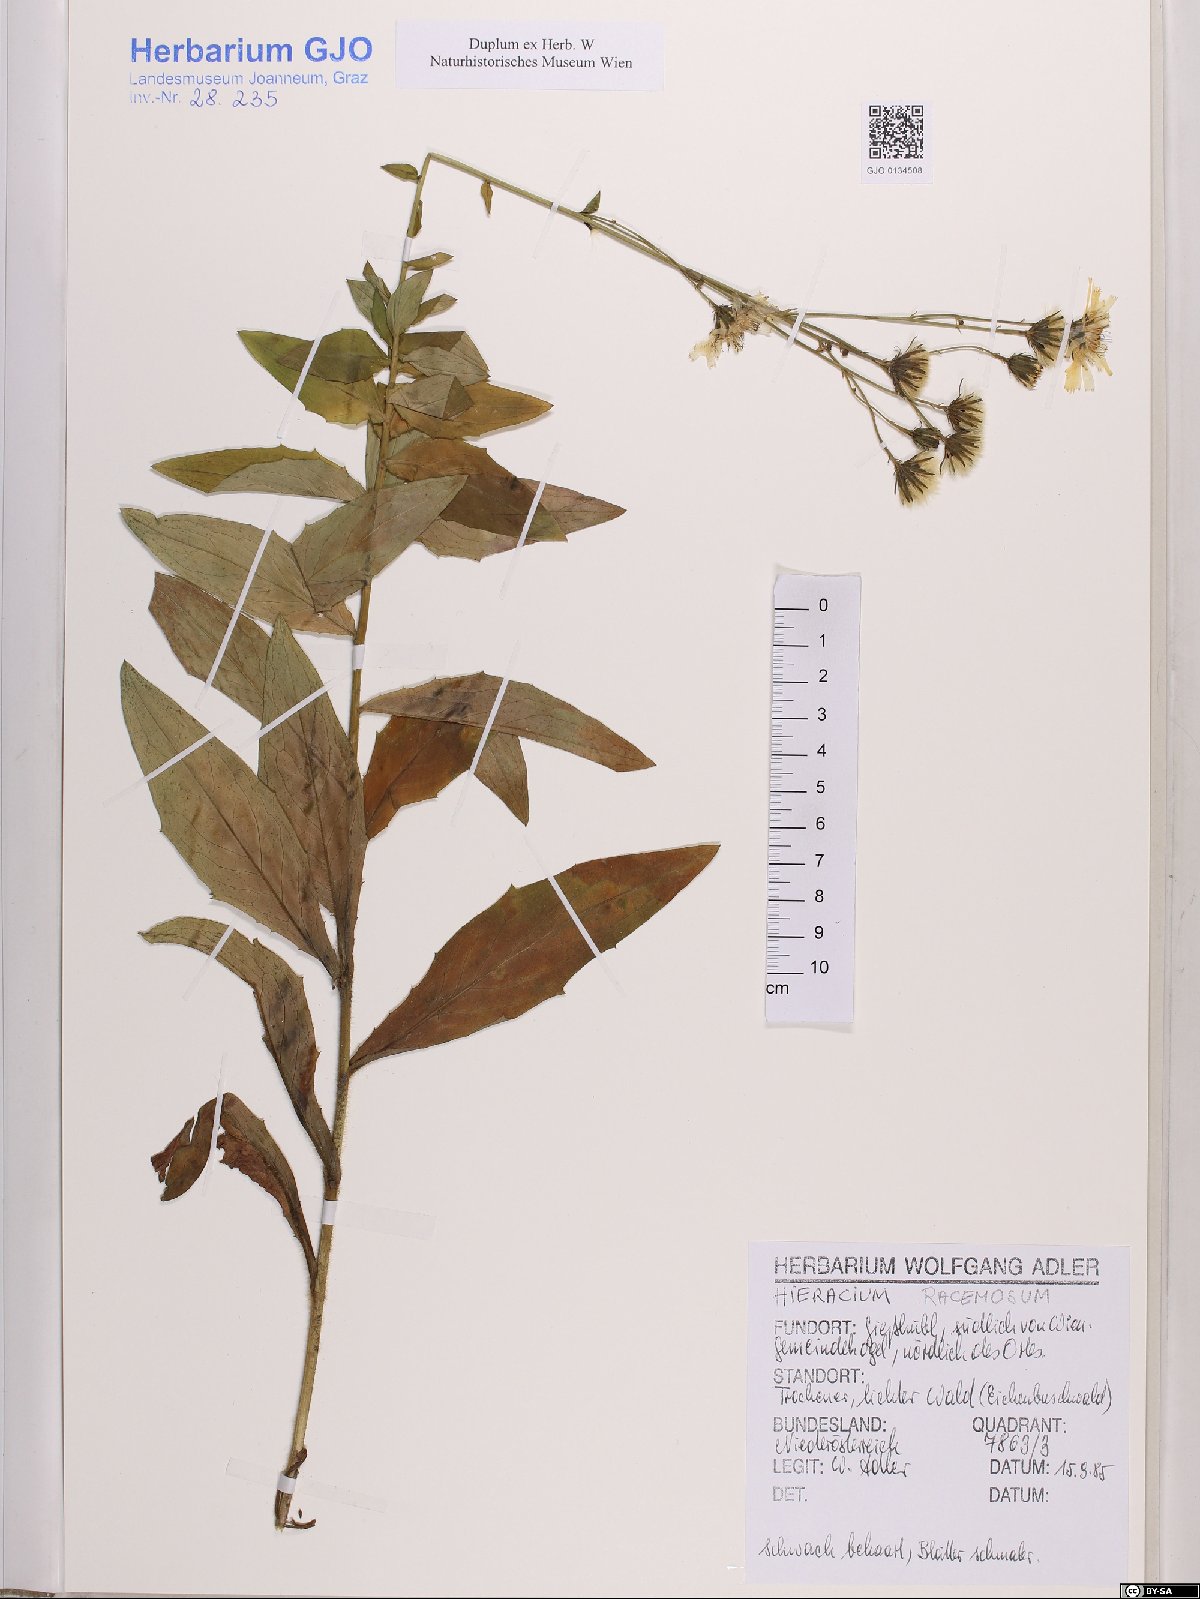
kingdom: Plantae
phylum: Tracheophyta
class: Magnoliopsida
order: Asterales
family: Asteraceae
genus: Hieracium
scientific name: Hieracium racemosum
